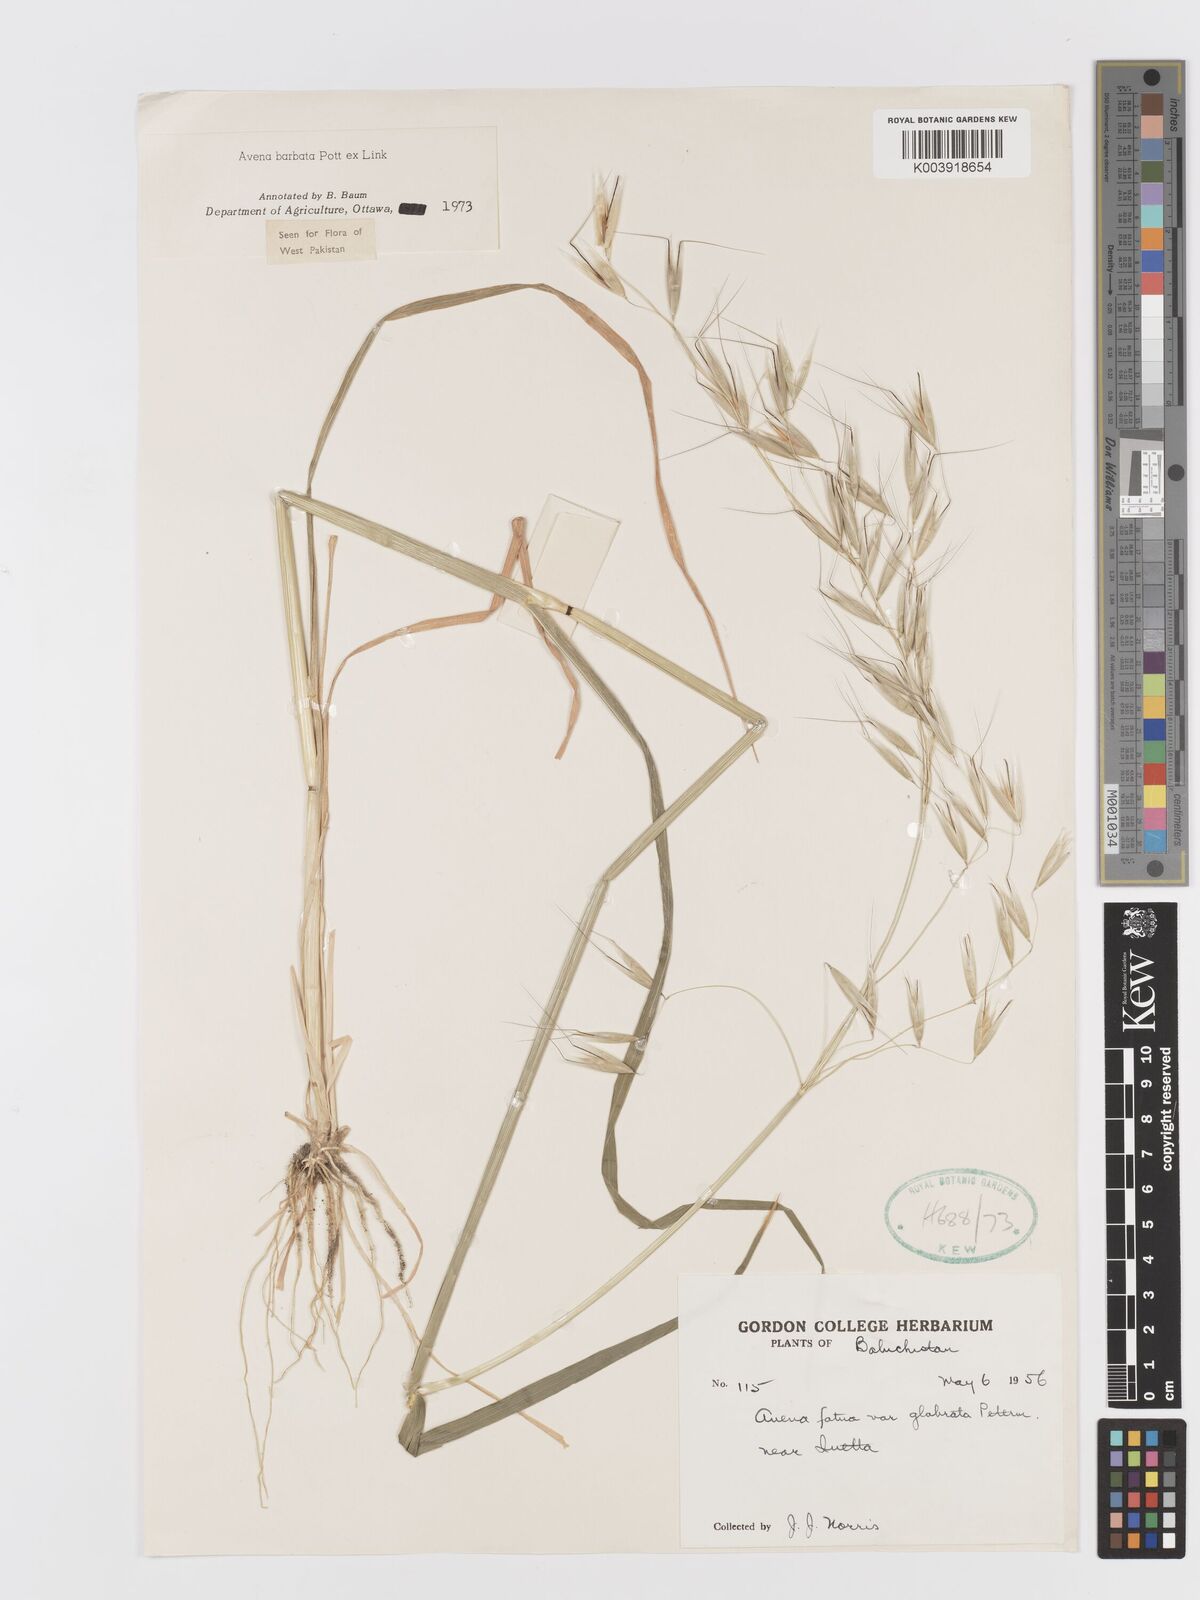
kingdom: Plantae
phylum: Tracheophyta
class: Liliopsida
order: Poales
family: Poaceae
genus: Avena
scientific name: Avena
